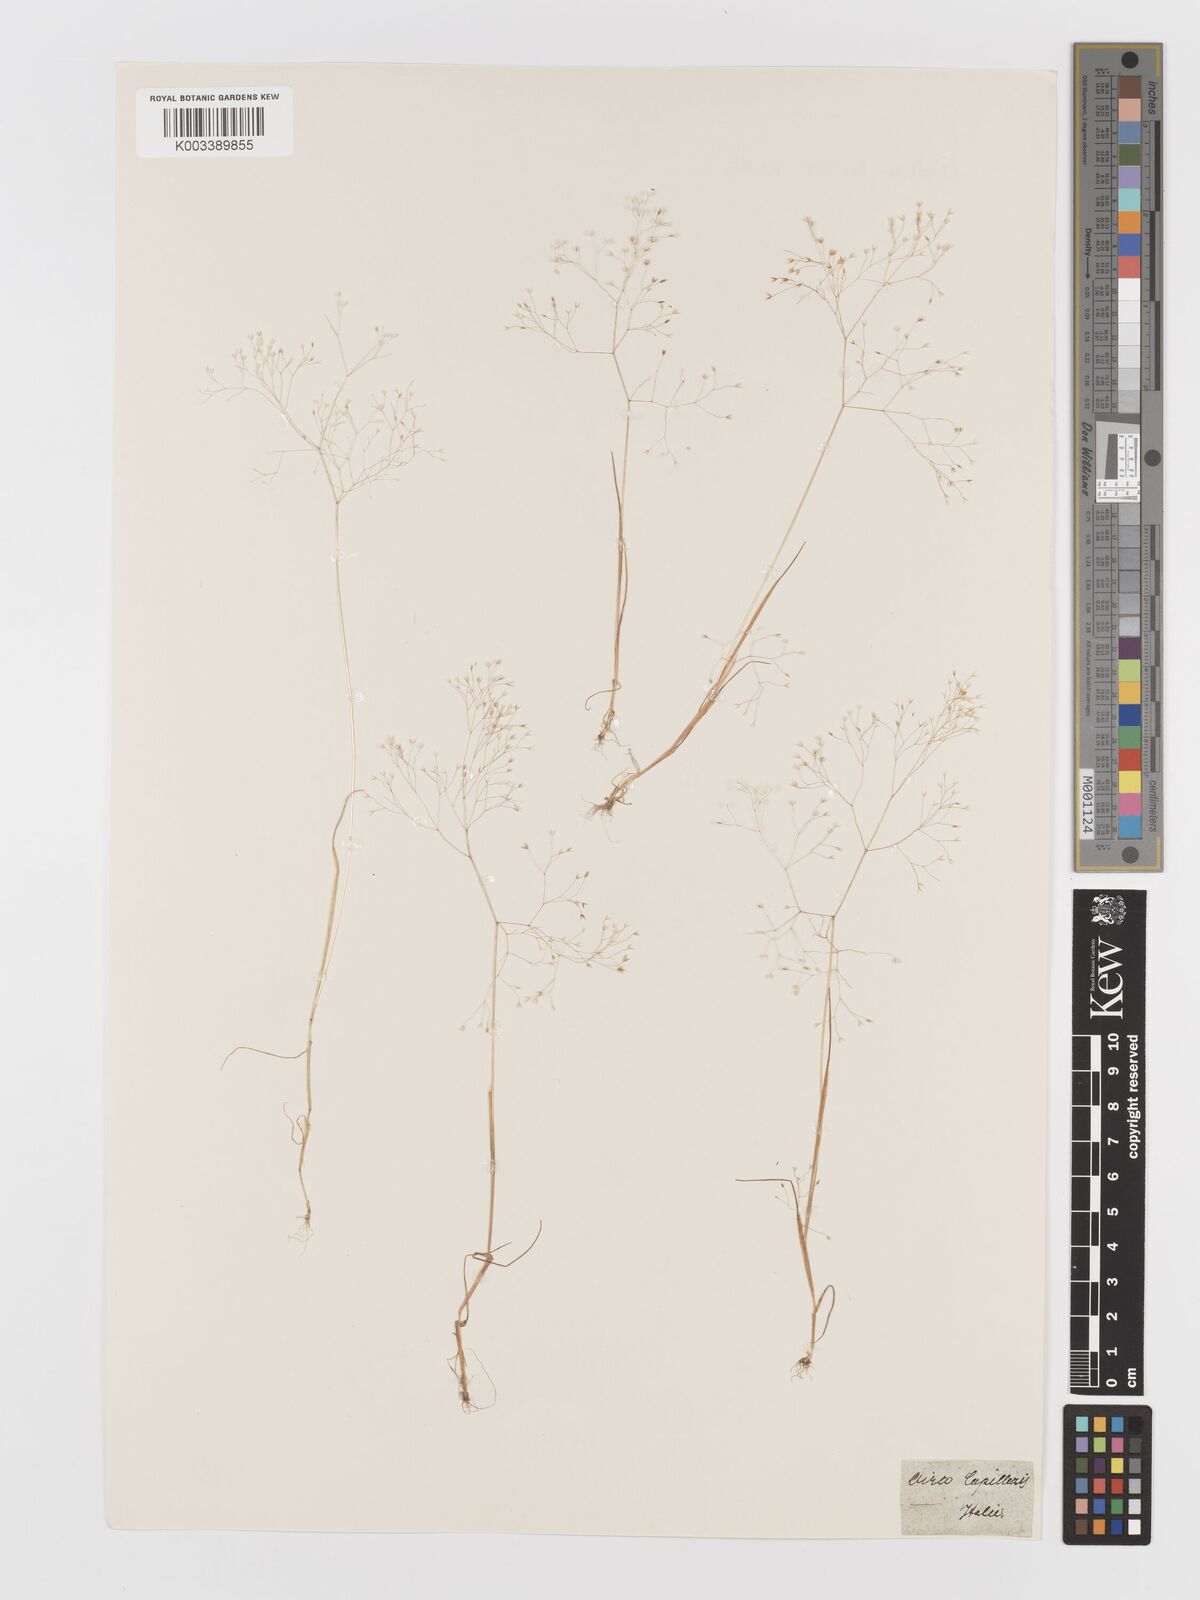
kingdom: Plantae
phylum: Tracheophyta
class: Liliopsida
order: Poales
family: Poaceae
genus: Aira
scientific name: Aira elegans
